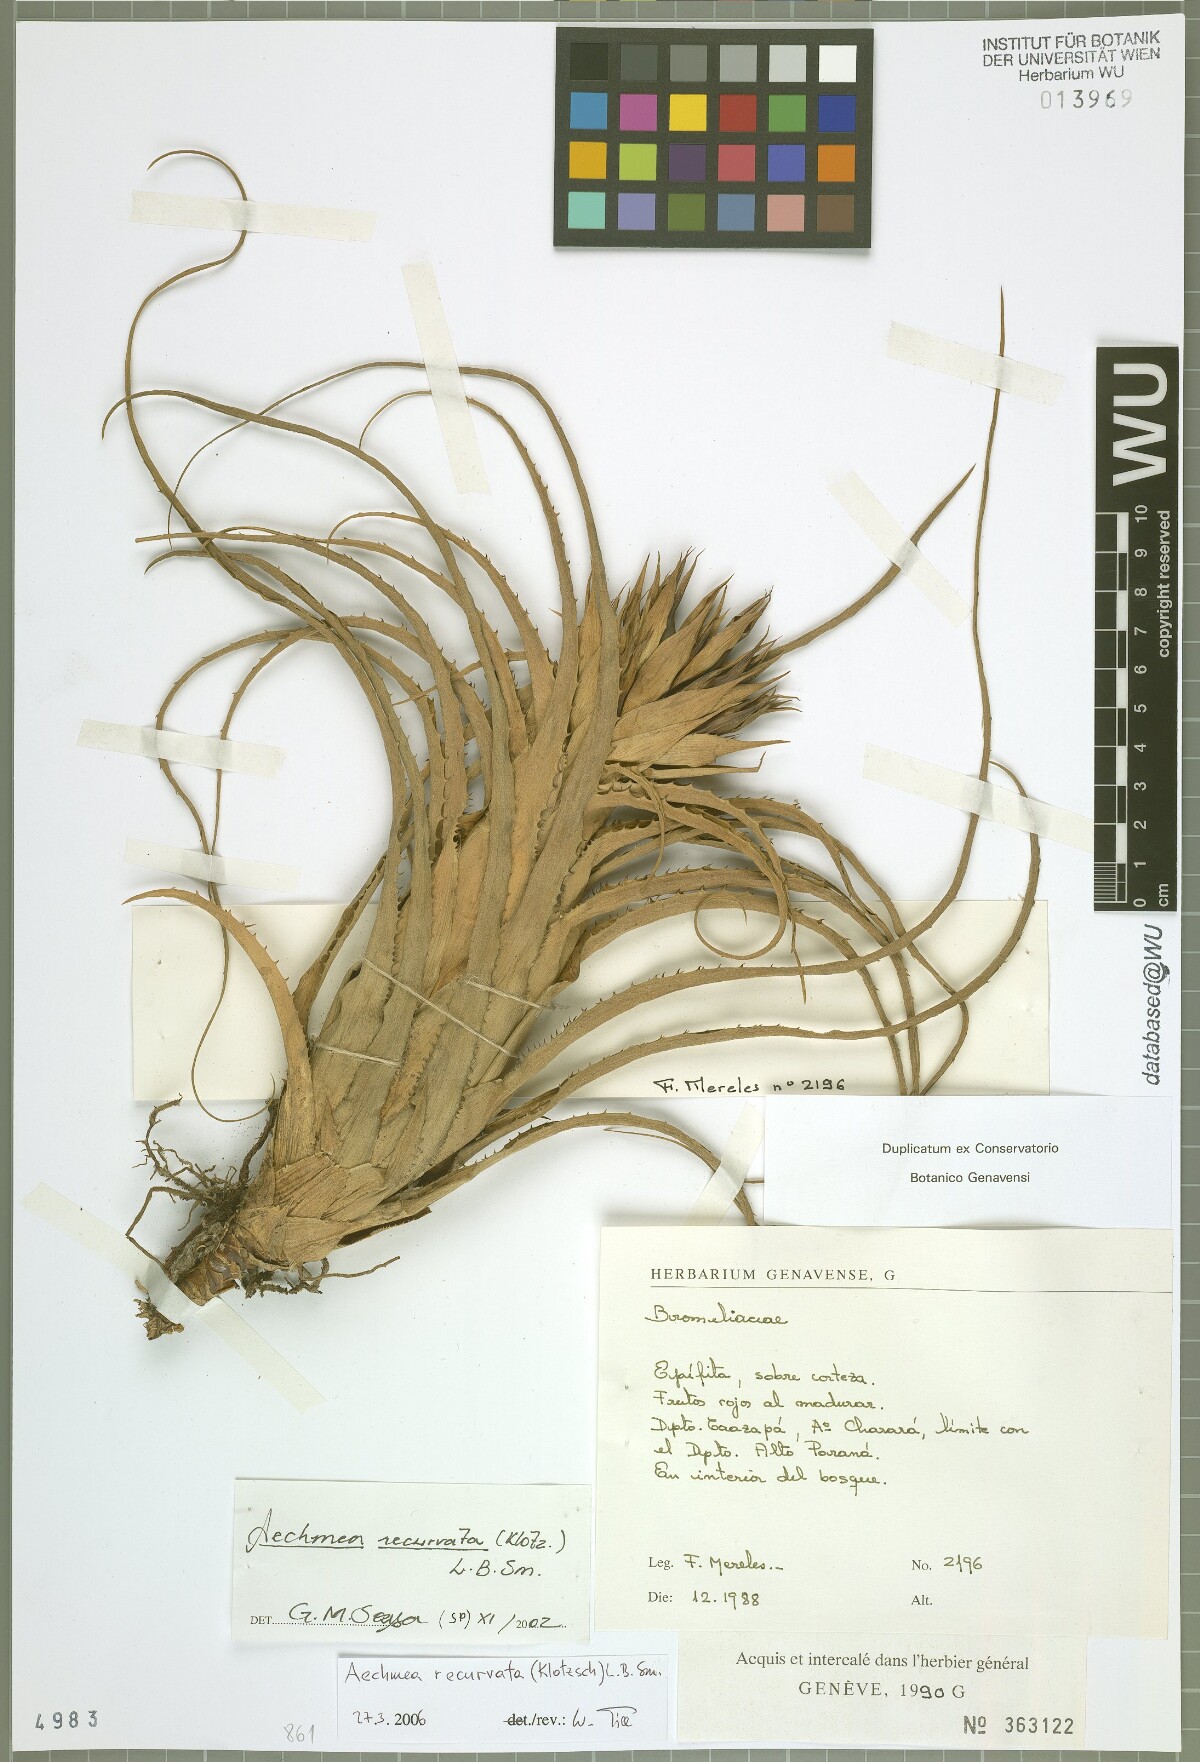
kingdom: Plantae
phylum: Tracheophyta
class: Liliopsida
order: Poales
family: Bromeliaceae
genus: Aechmea
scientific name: Aechmea recurvata
